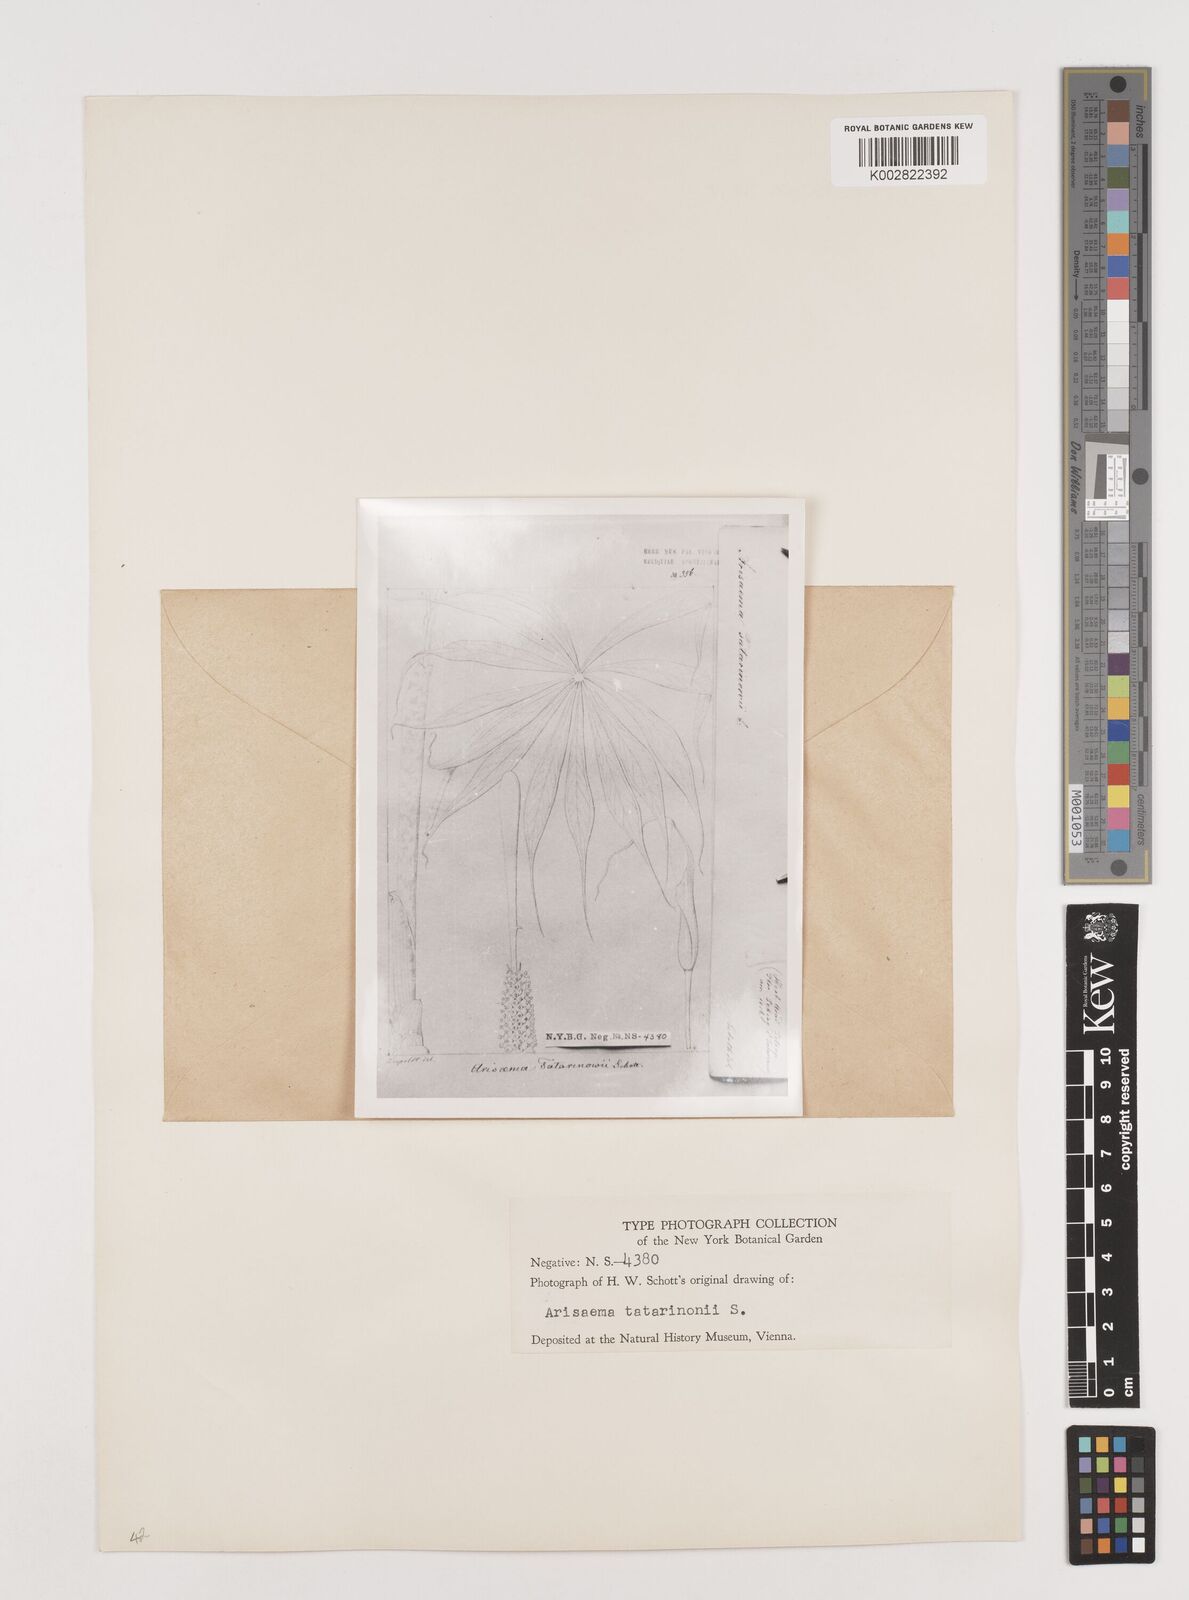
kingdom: Plantae
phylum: Tracheophyta
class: Liliopsida
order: Alismatales
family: Araceae
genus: Arisaema
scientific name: Arisaema erubescens
